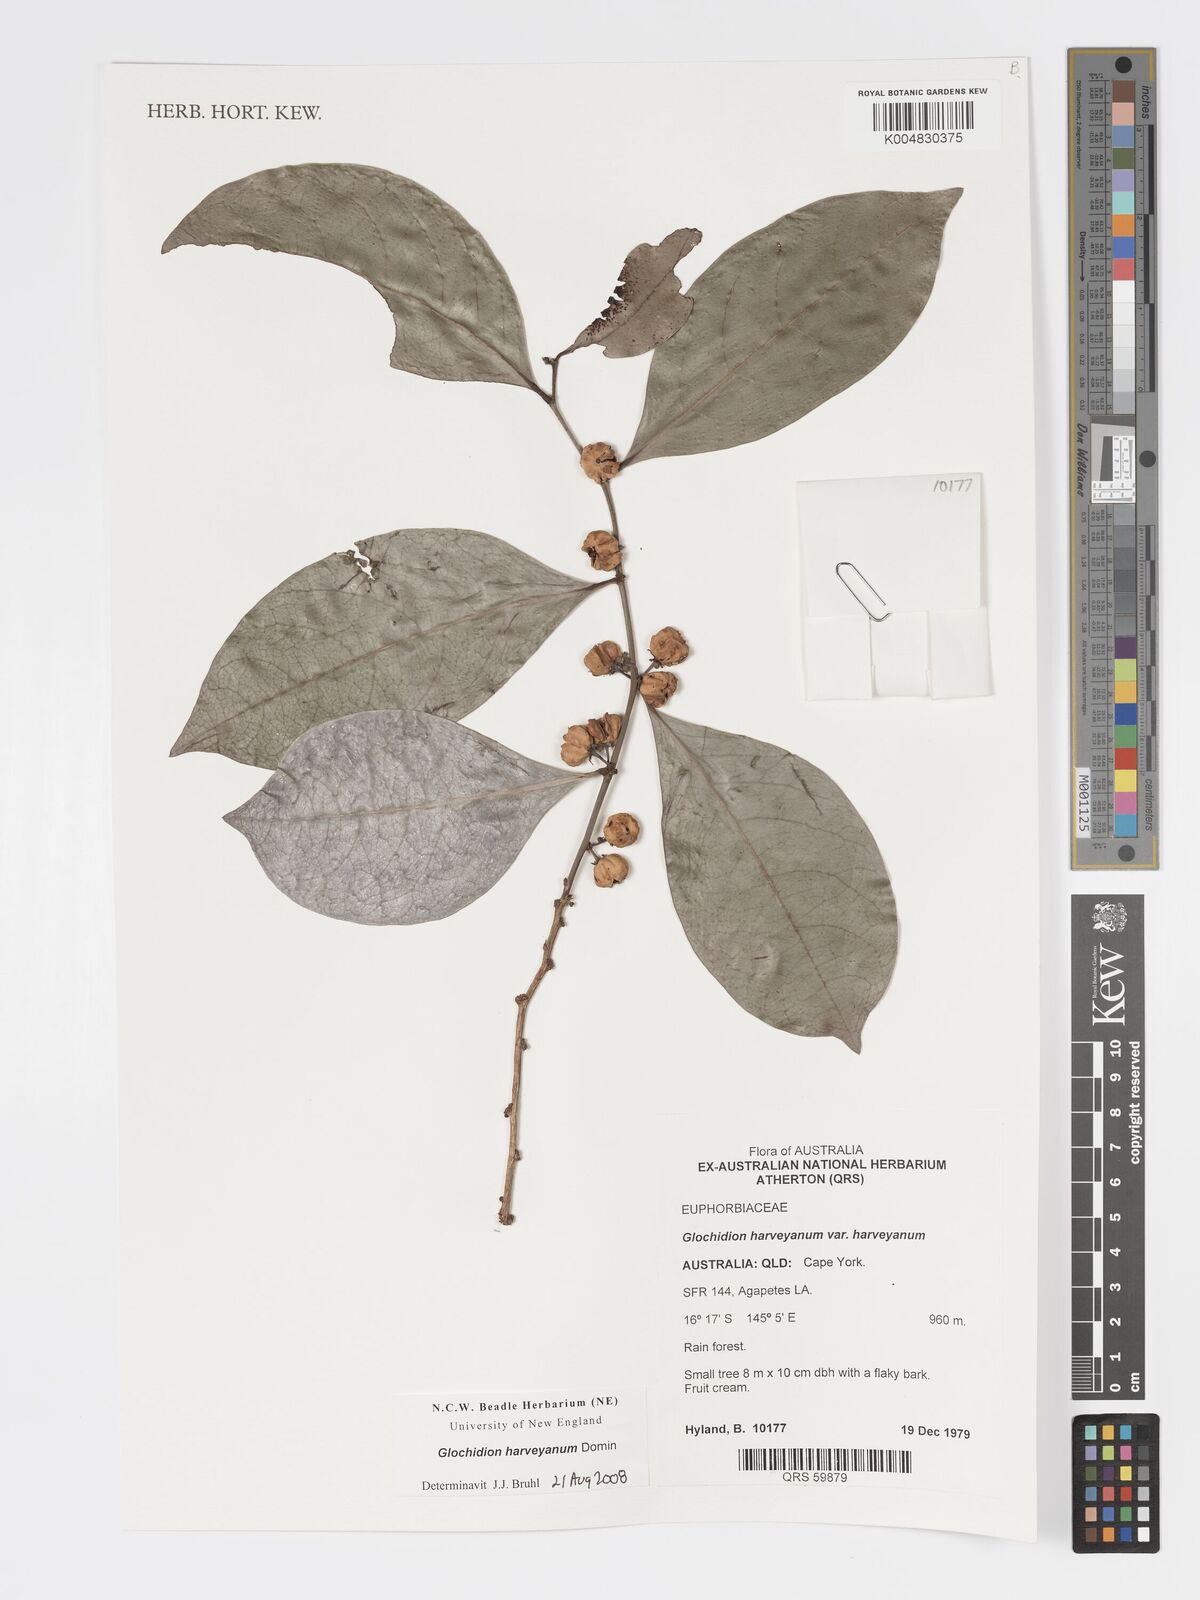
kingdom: Plantae
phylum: Tracheophyta
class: Magnoliopsida
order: Malpighiales
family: Phyllanthaceae
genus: Glochidion
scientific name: Glochidion harveyanum
